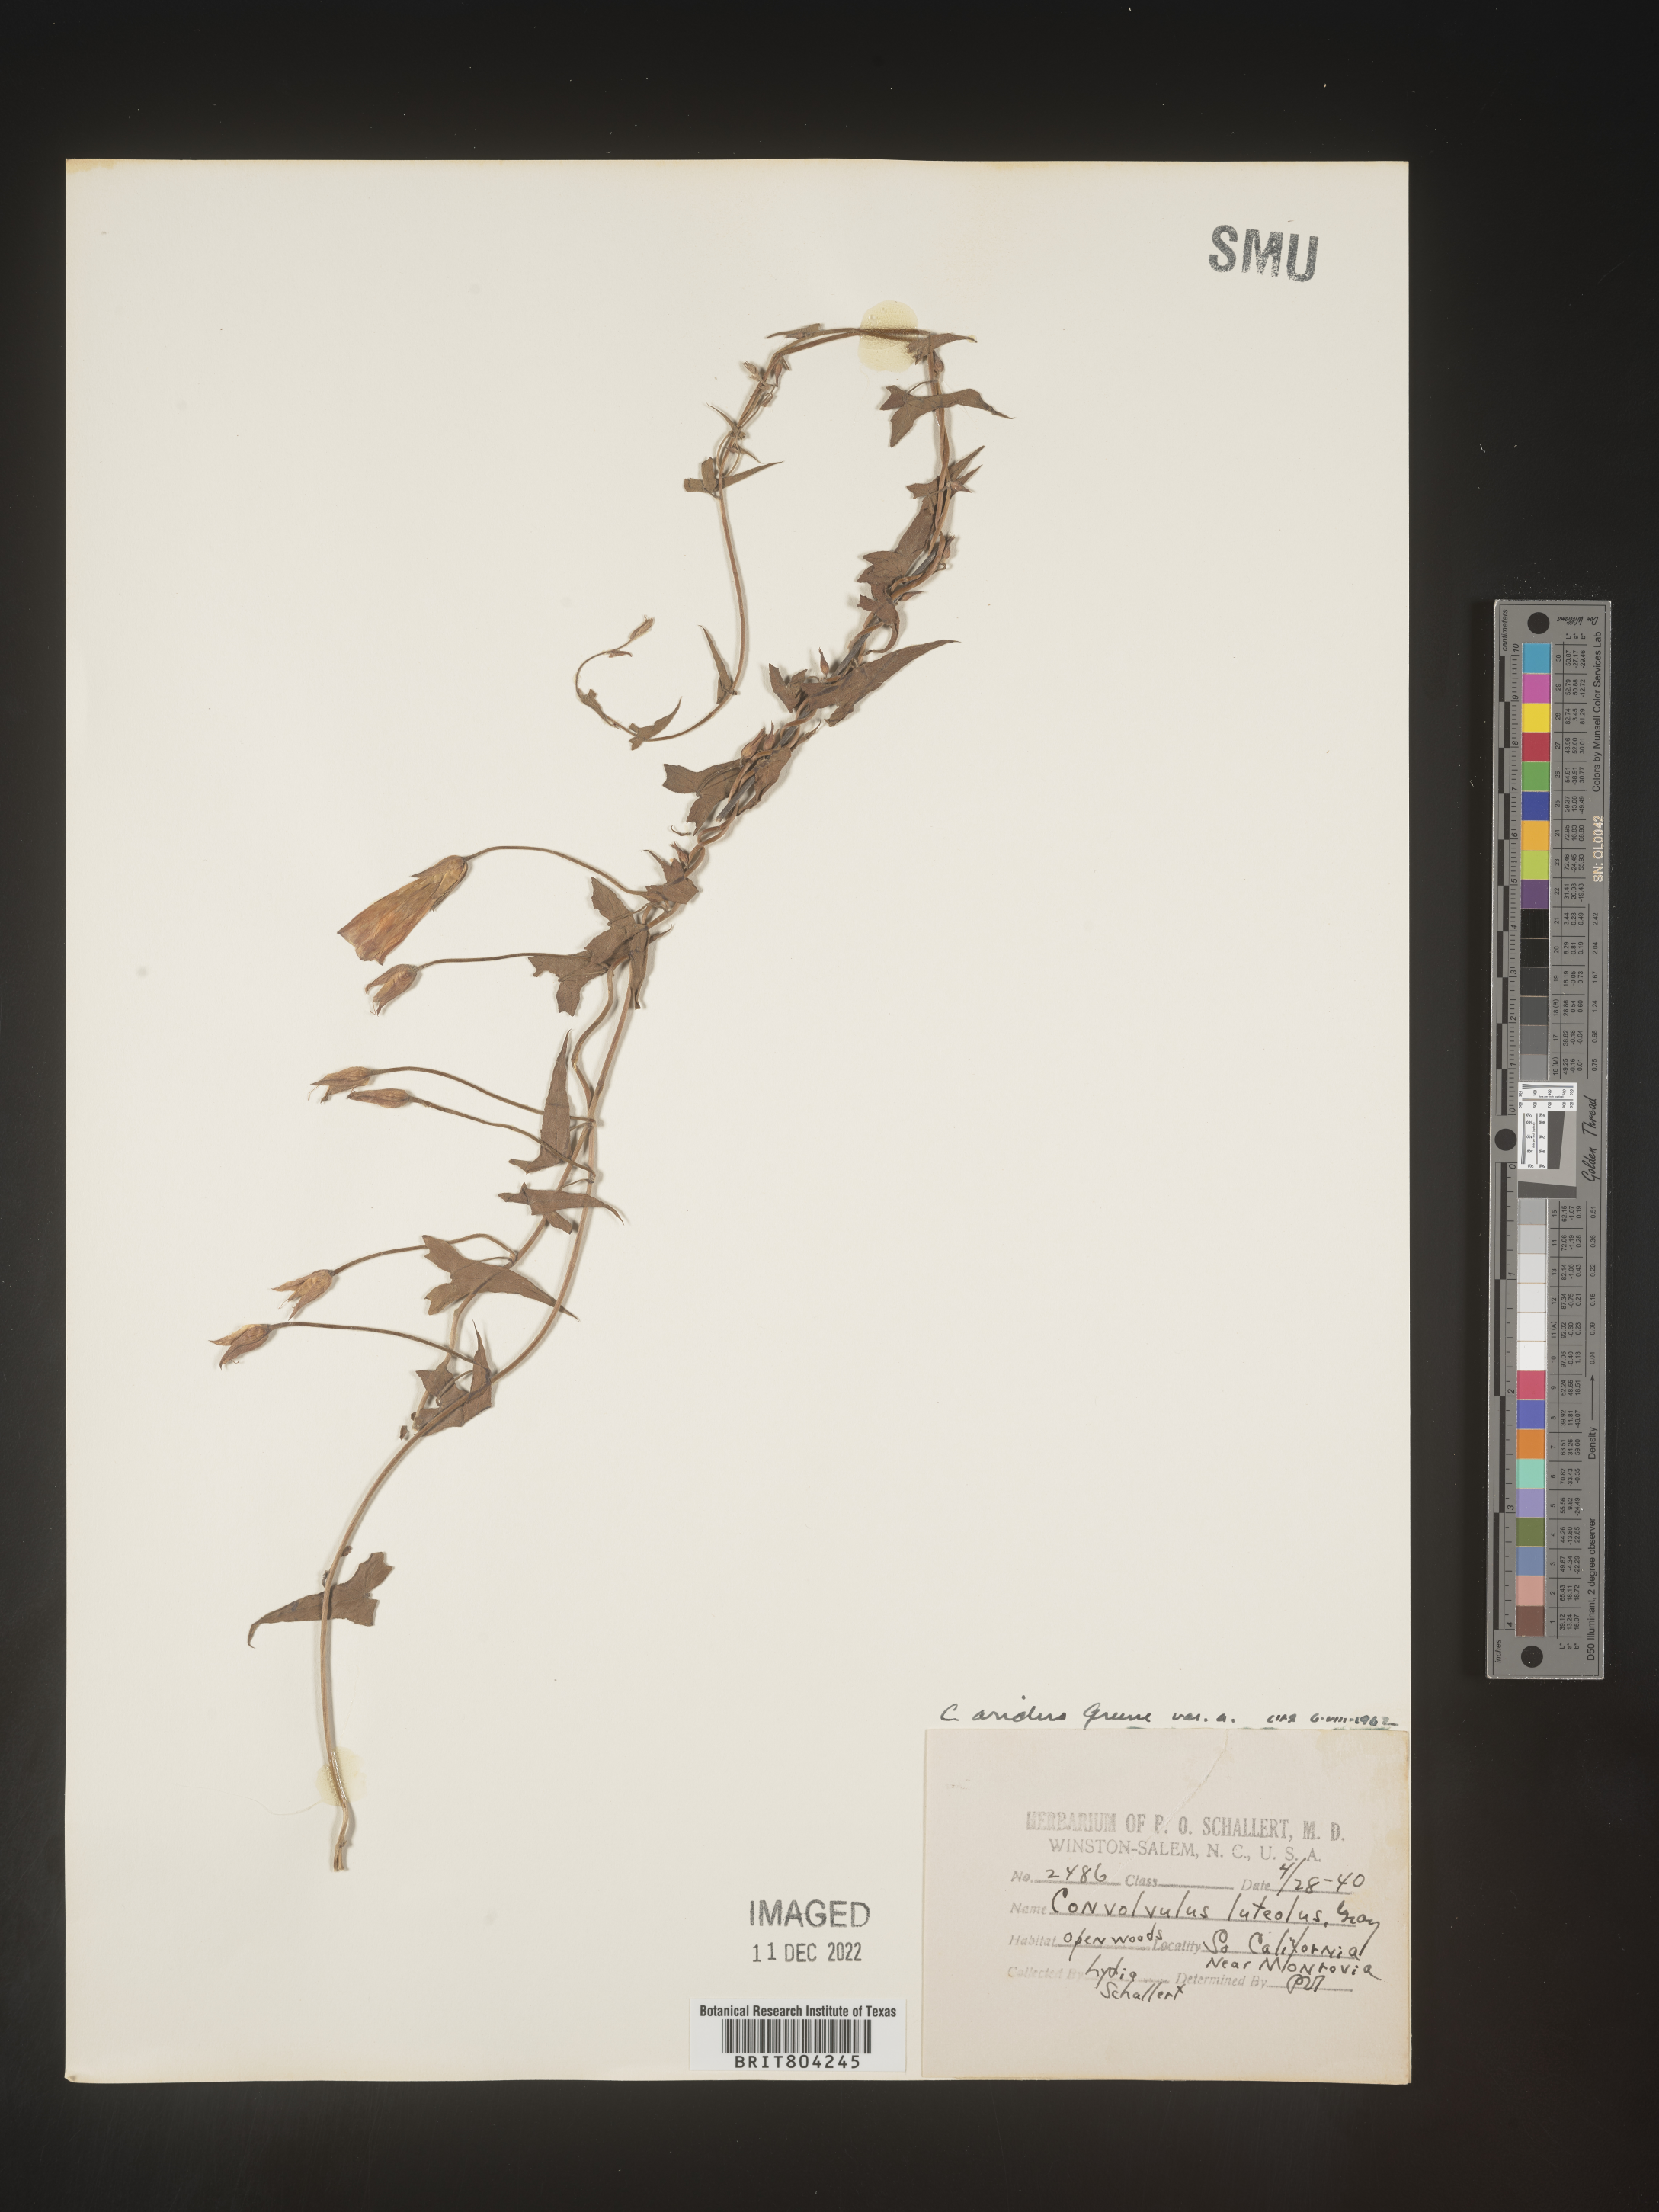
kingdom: Plantae
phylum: Tracheophyta
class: Magnoliopsida
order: Solanales
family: Convolvulaceae
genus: Convolvulus
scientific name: Convolvulus
